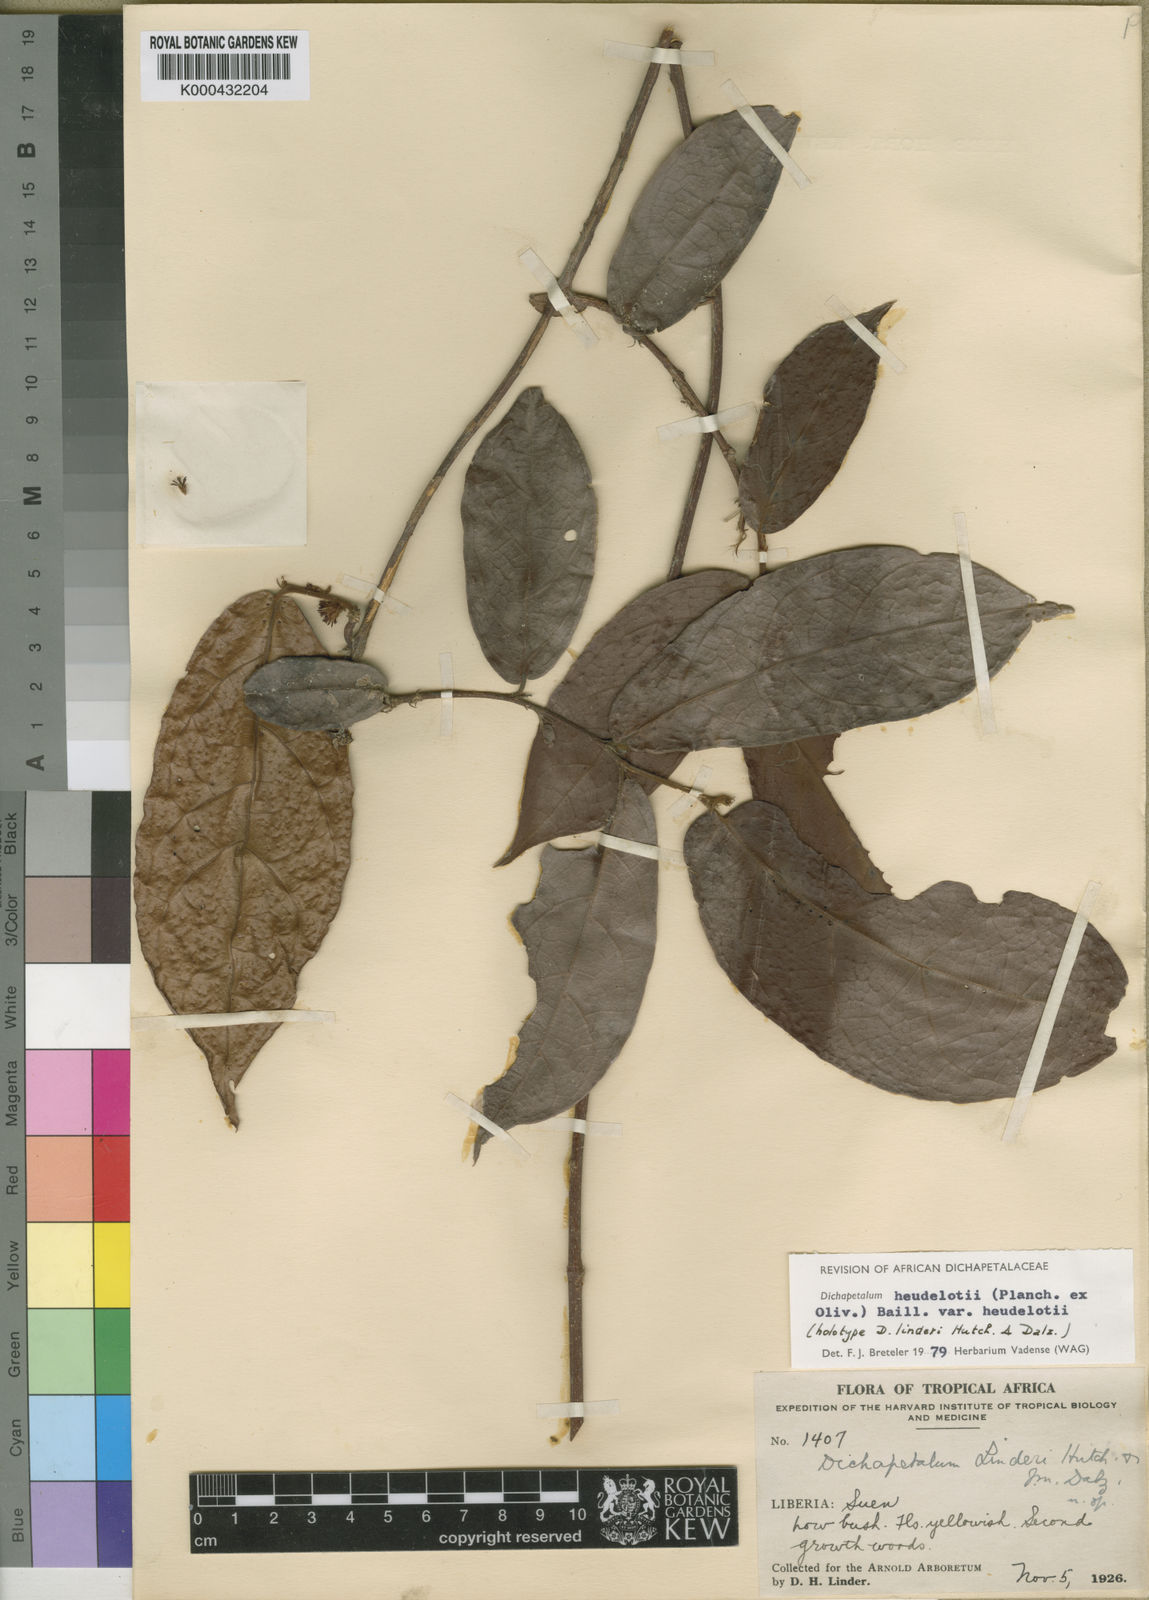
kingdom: Plantae
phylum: Tracheophyta
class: Magnoliopsida
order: Malpighiales
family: Dichapetalaceae
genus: Dichapetalum
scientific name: Dichapetalum heudelotii
